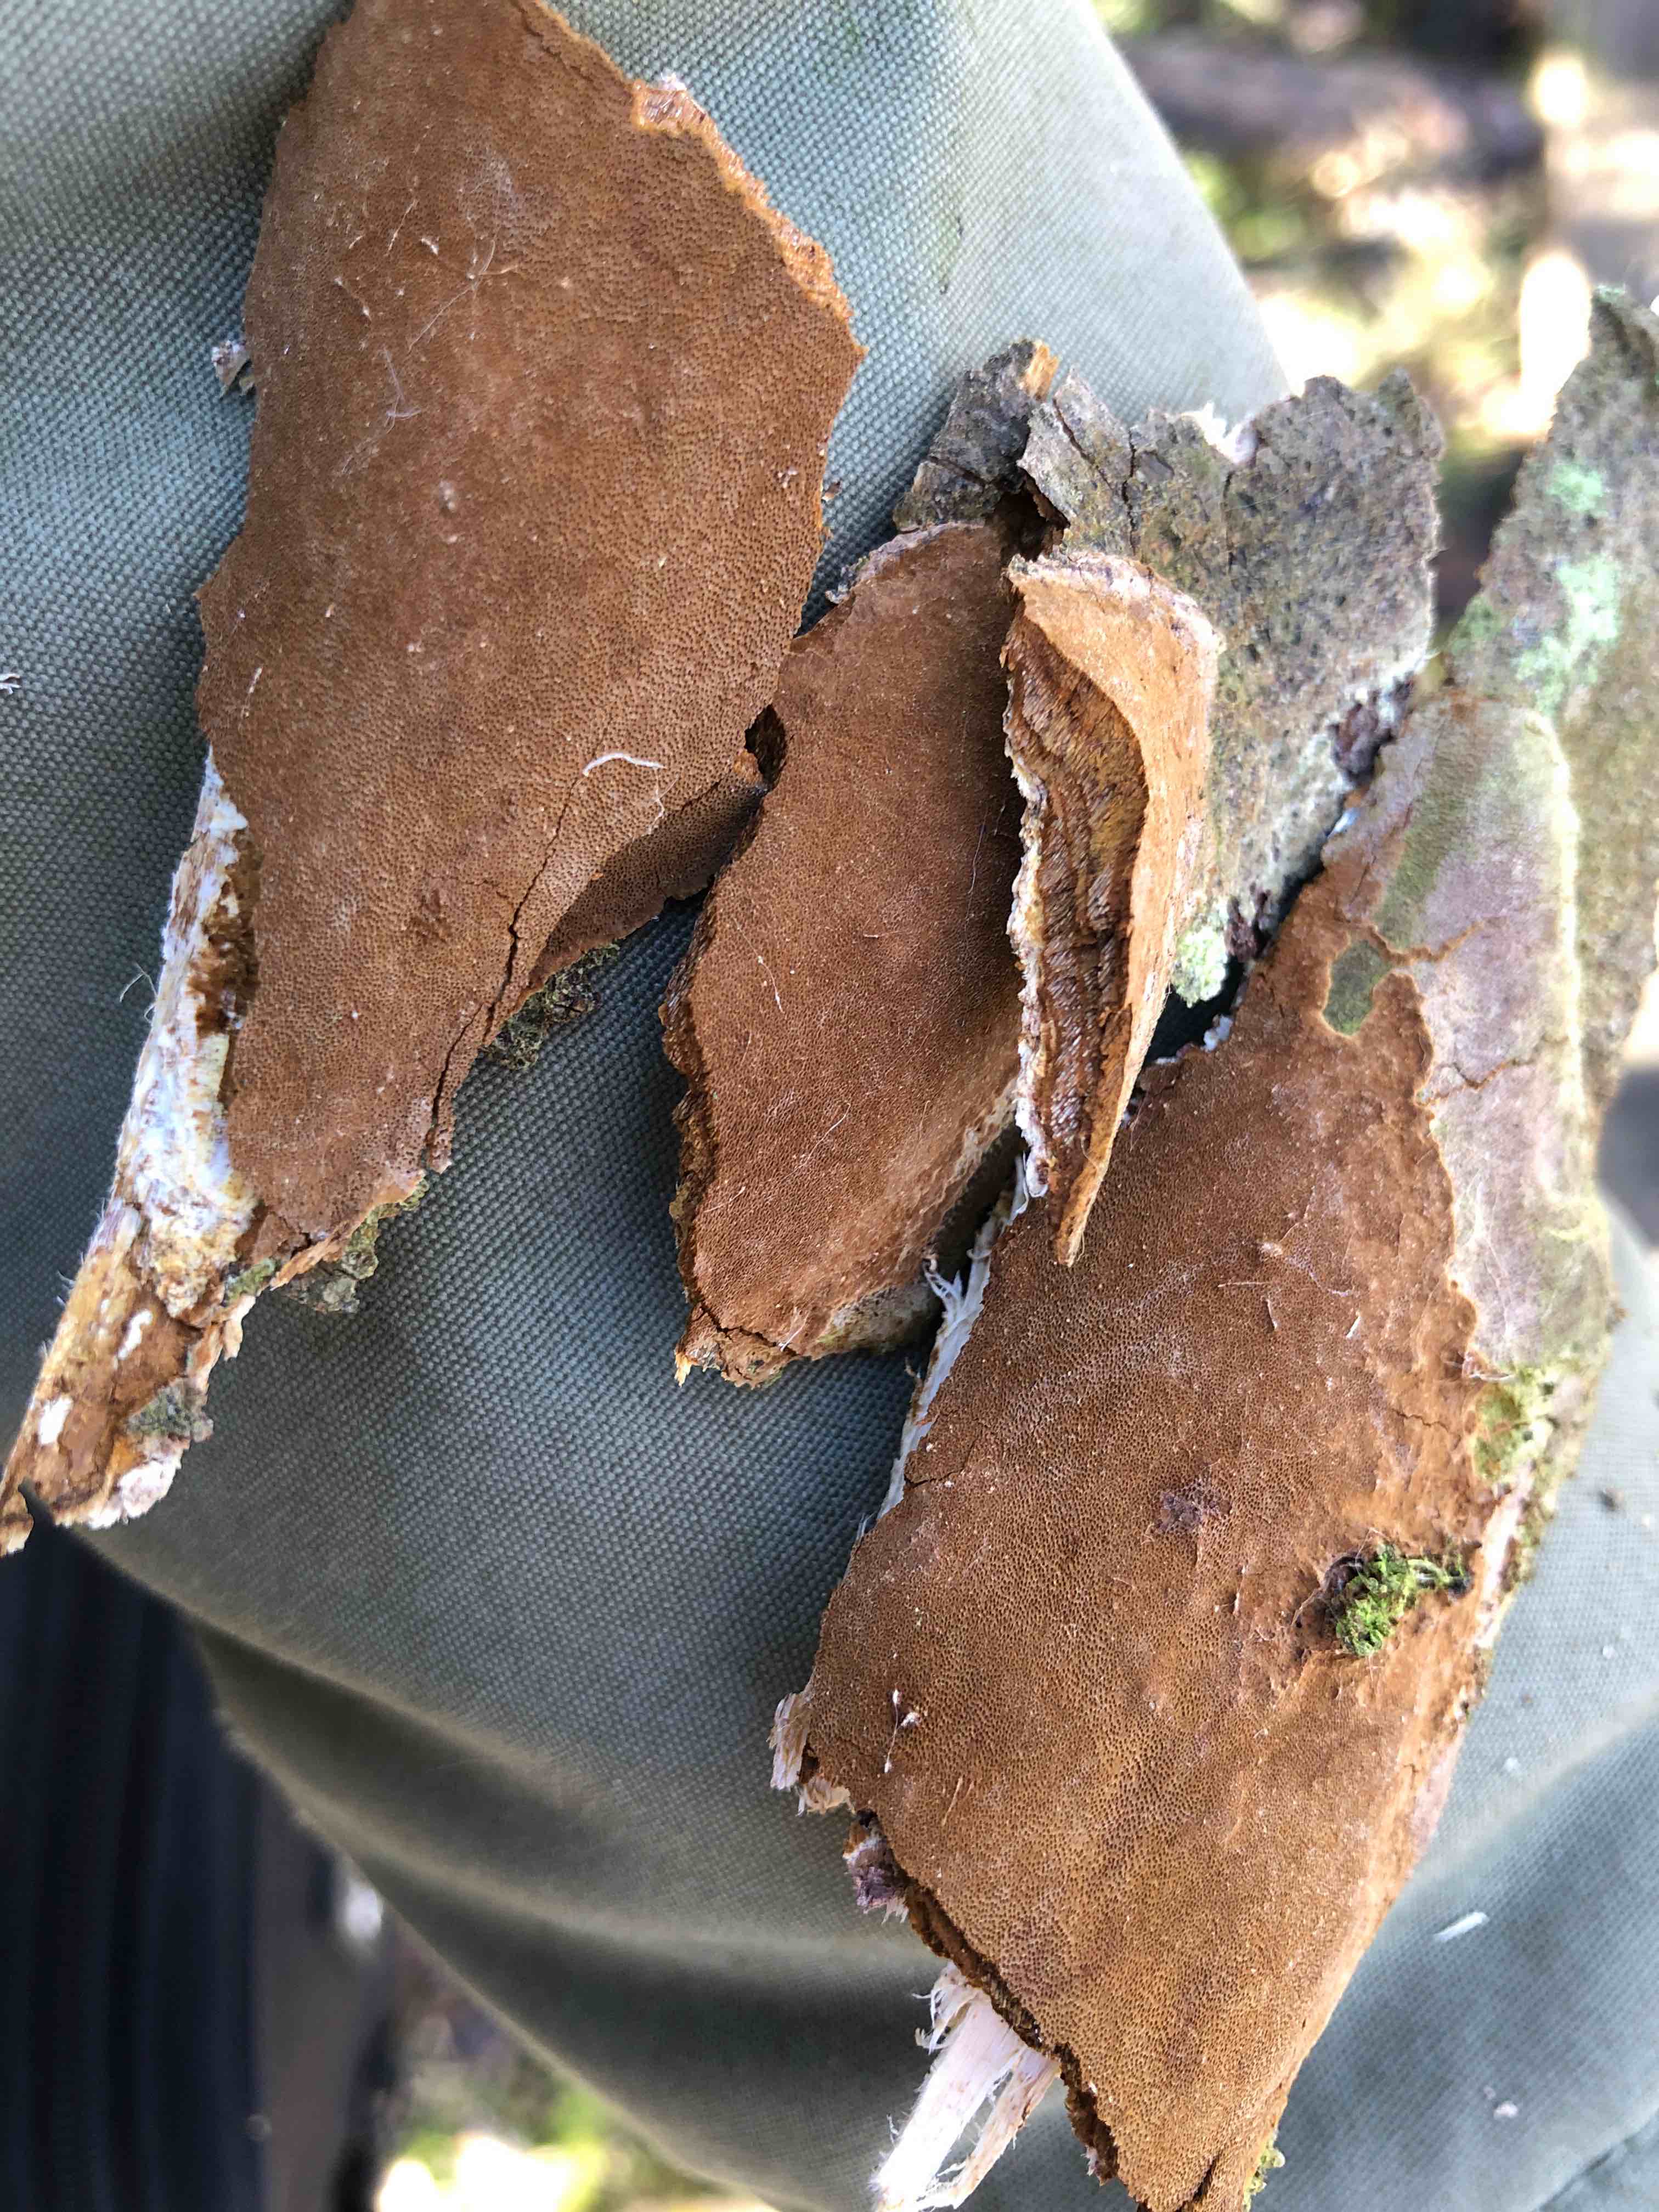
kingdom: Fungi
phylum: Basidiomycota
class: Agaricomycetes
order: Hymenochaetales
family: Hymenochaetaceae
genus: Fomitiporia
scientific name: Fomitiporia punctata
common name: pude-ildporesvamp
